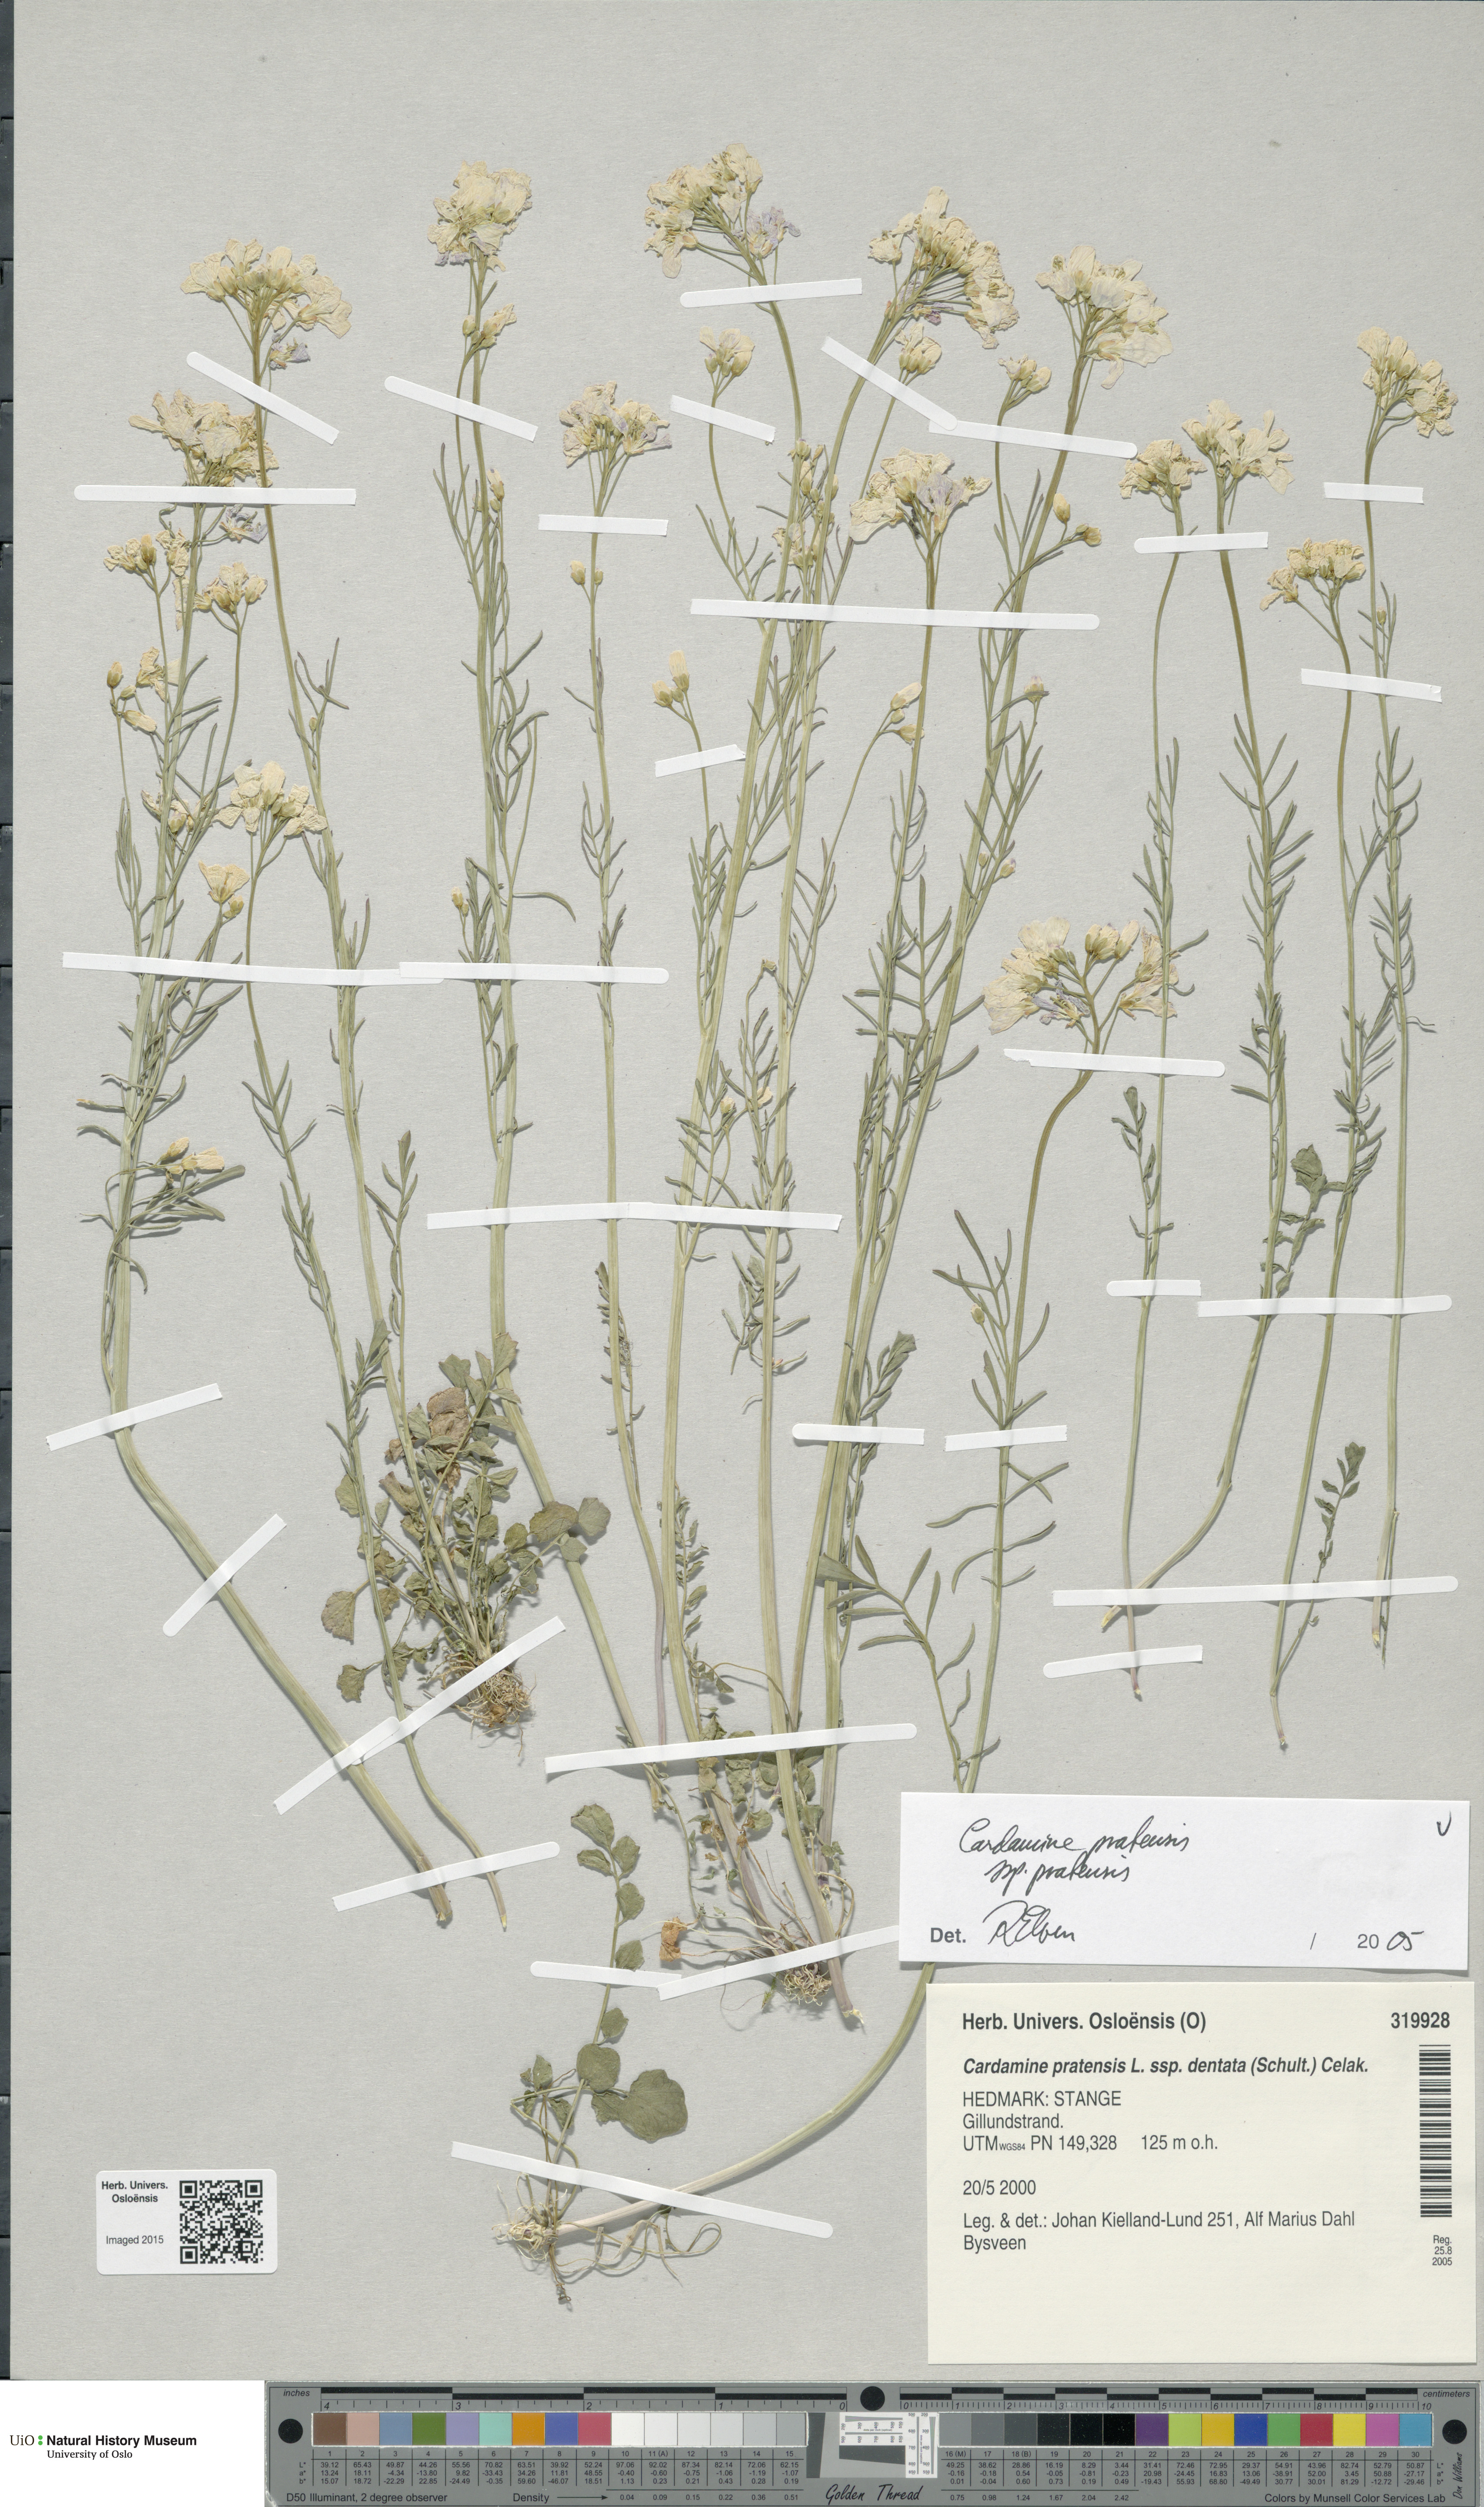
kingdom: Plantae
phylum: Tracheophyta
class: Magnoliopsida
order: Brassicales
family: Brassicaceae
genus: Cardamine
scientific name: Cardamine pratensis
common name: Cuckoo flower
